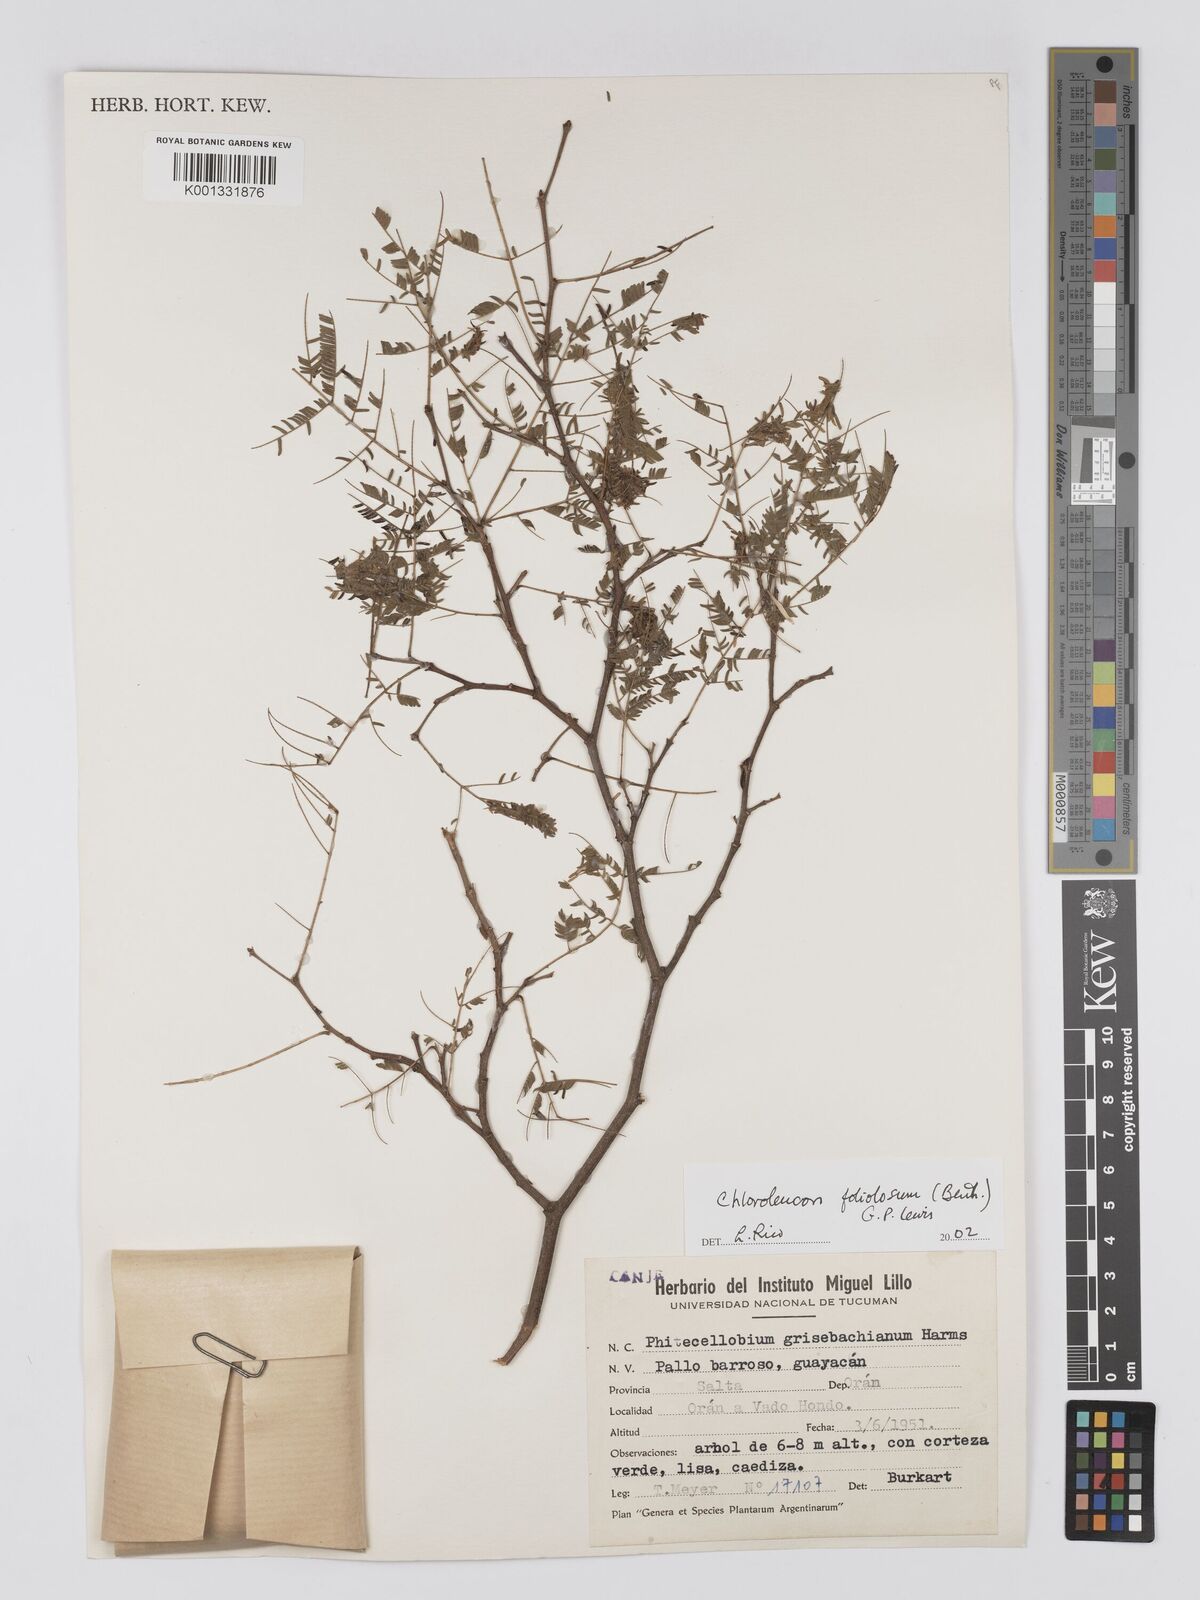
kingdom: Plantae
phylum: Tracheophyta
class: Magnoliopsida
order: Fabales
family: Fabaceae
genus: Chloroleucon
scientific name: Chloroleucon foliolosum
